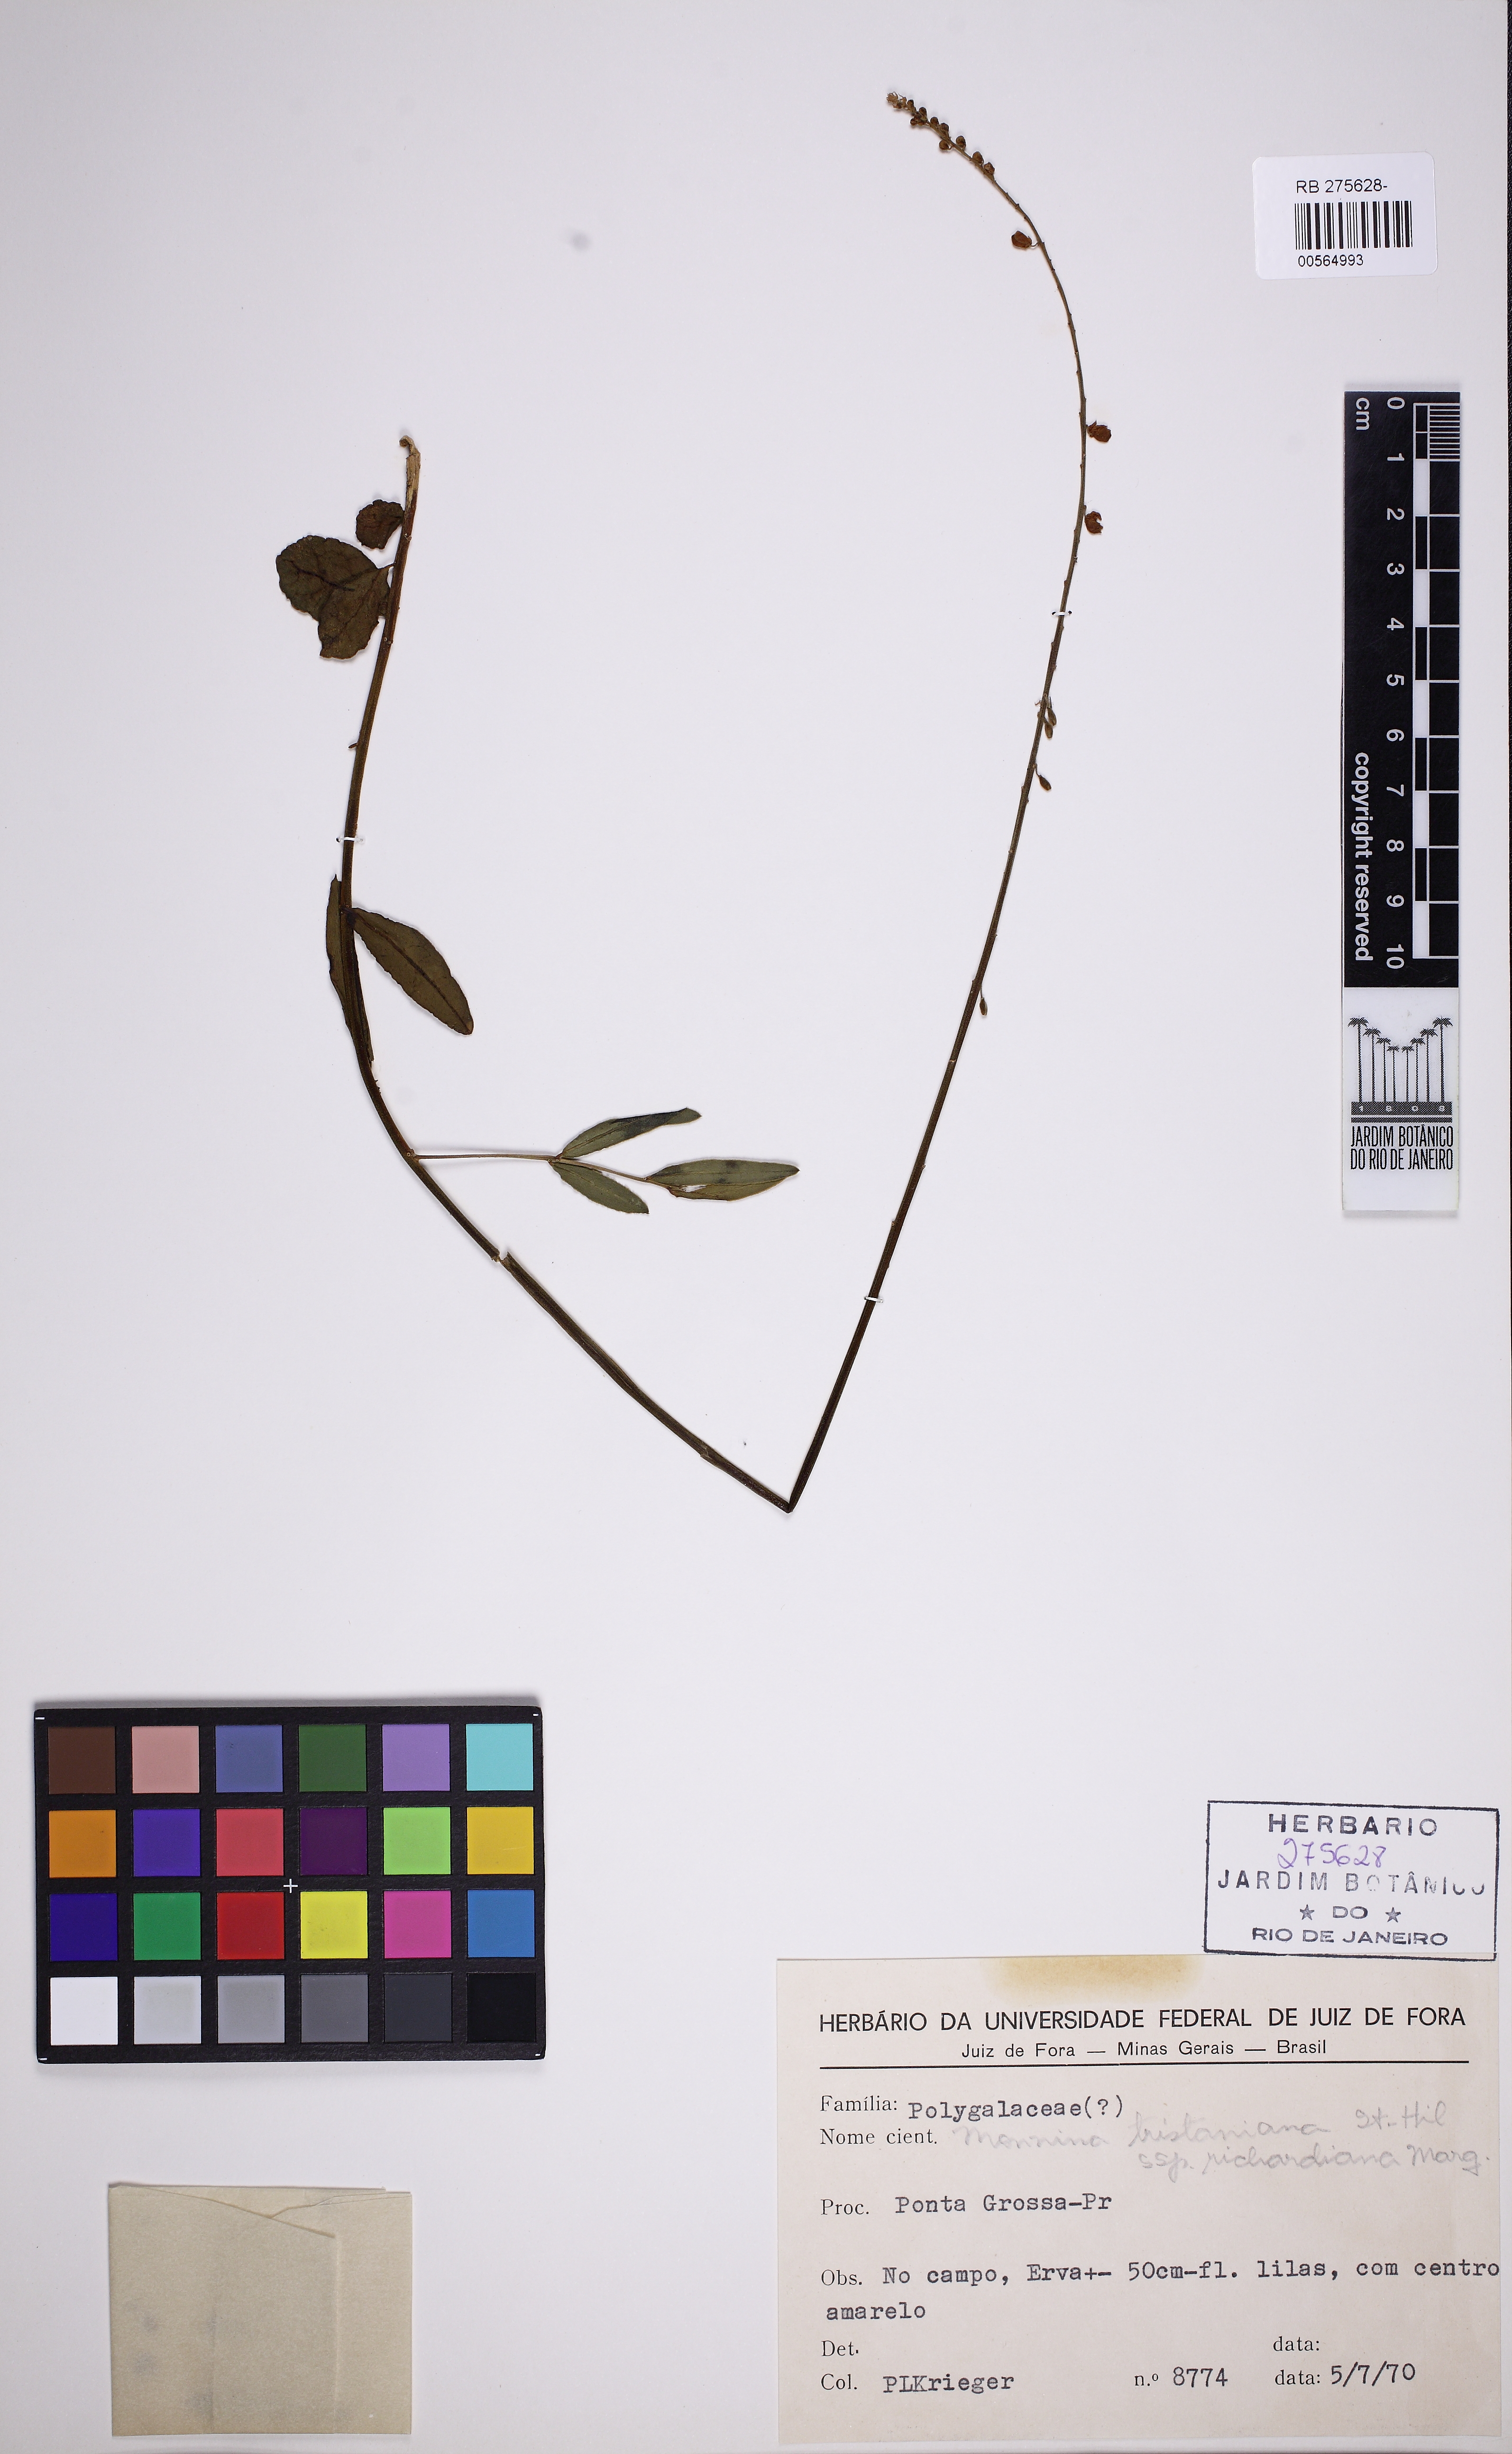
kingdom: Plantae
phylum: Tracheophyta
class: Magnoliopsida
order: Fabales
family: Polygalaceae
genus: Monnina
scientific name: Monnina richardiana
